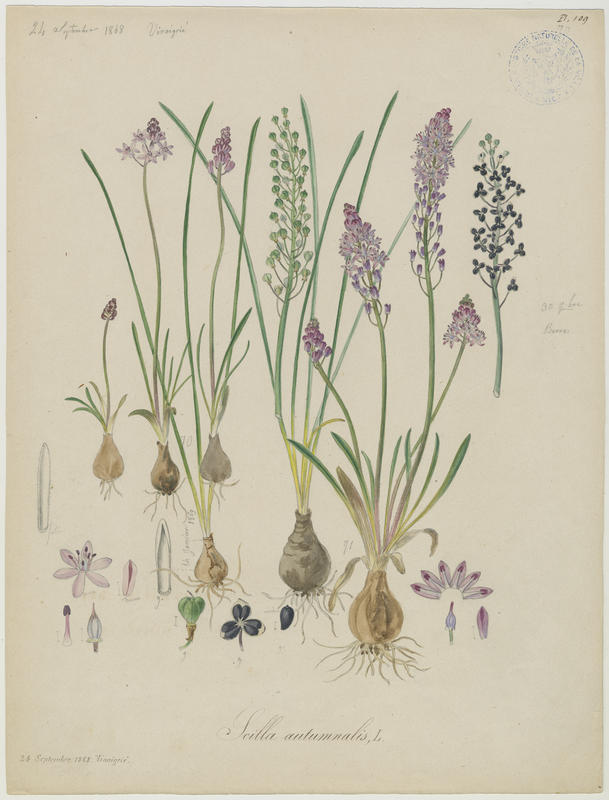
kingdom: Plantae
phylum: Tracheophyta
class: Liliopsida
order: Asparagales
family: Asparagaceae
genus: Prospero
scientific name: Prospero autumnale
